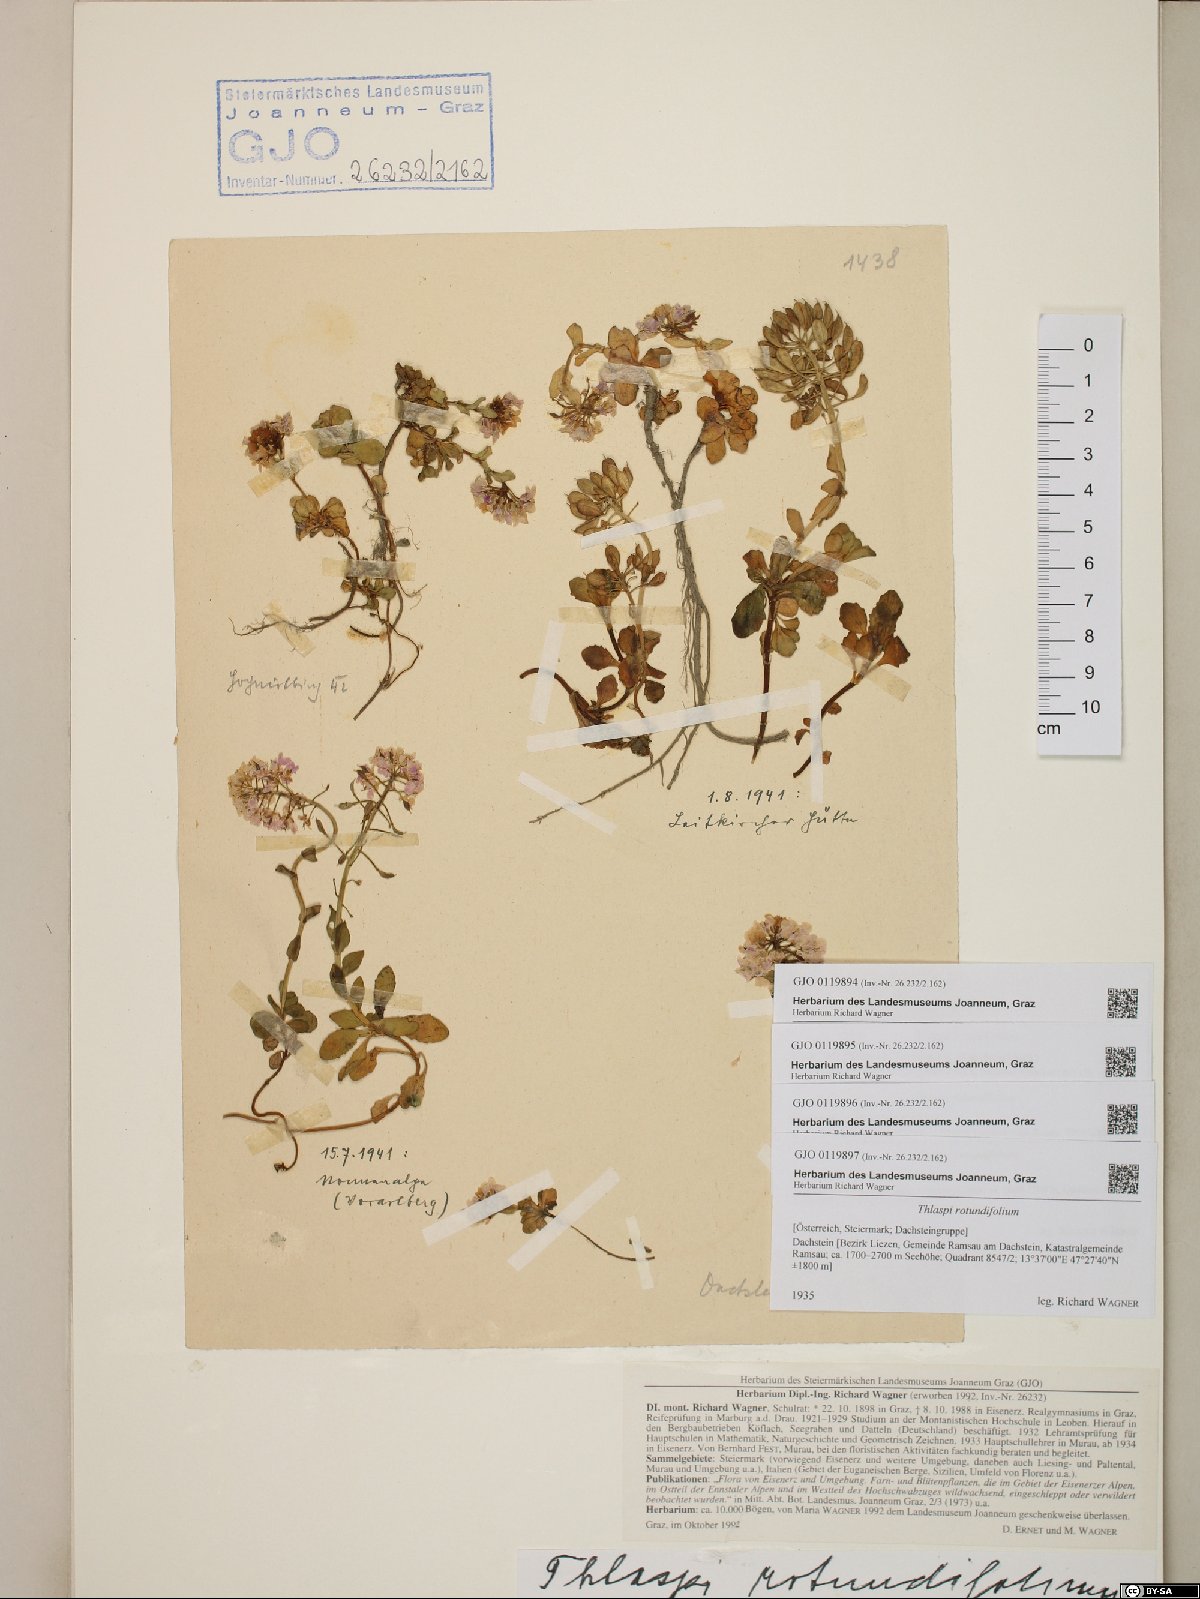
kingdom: Plantae
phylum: Tracheophyta
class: Magnoliopsida
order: Brassicales
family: Brassicaceae
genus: Noccaea
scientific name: Noccaea rotundifolia
